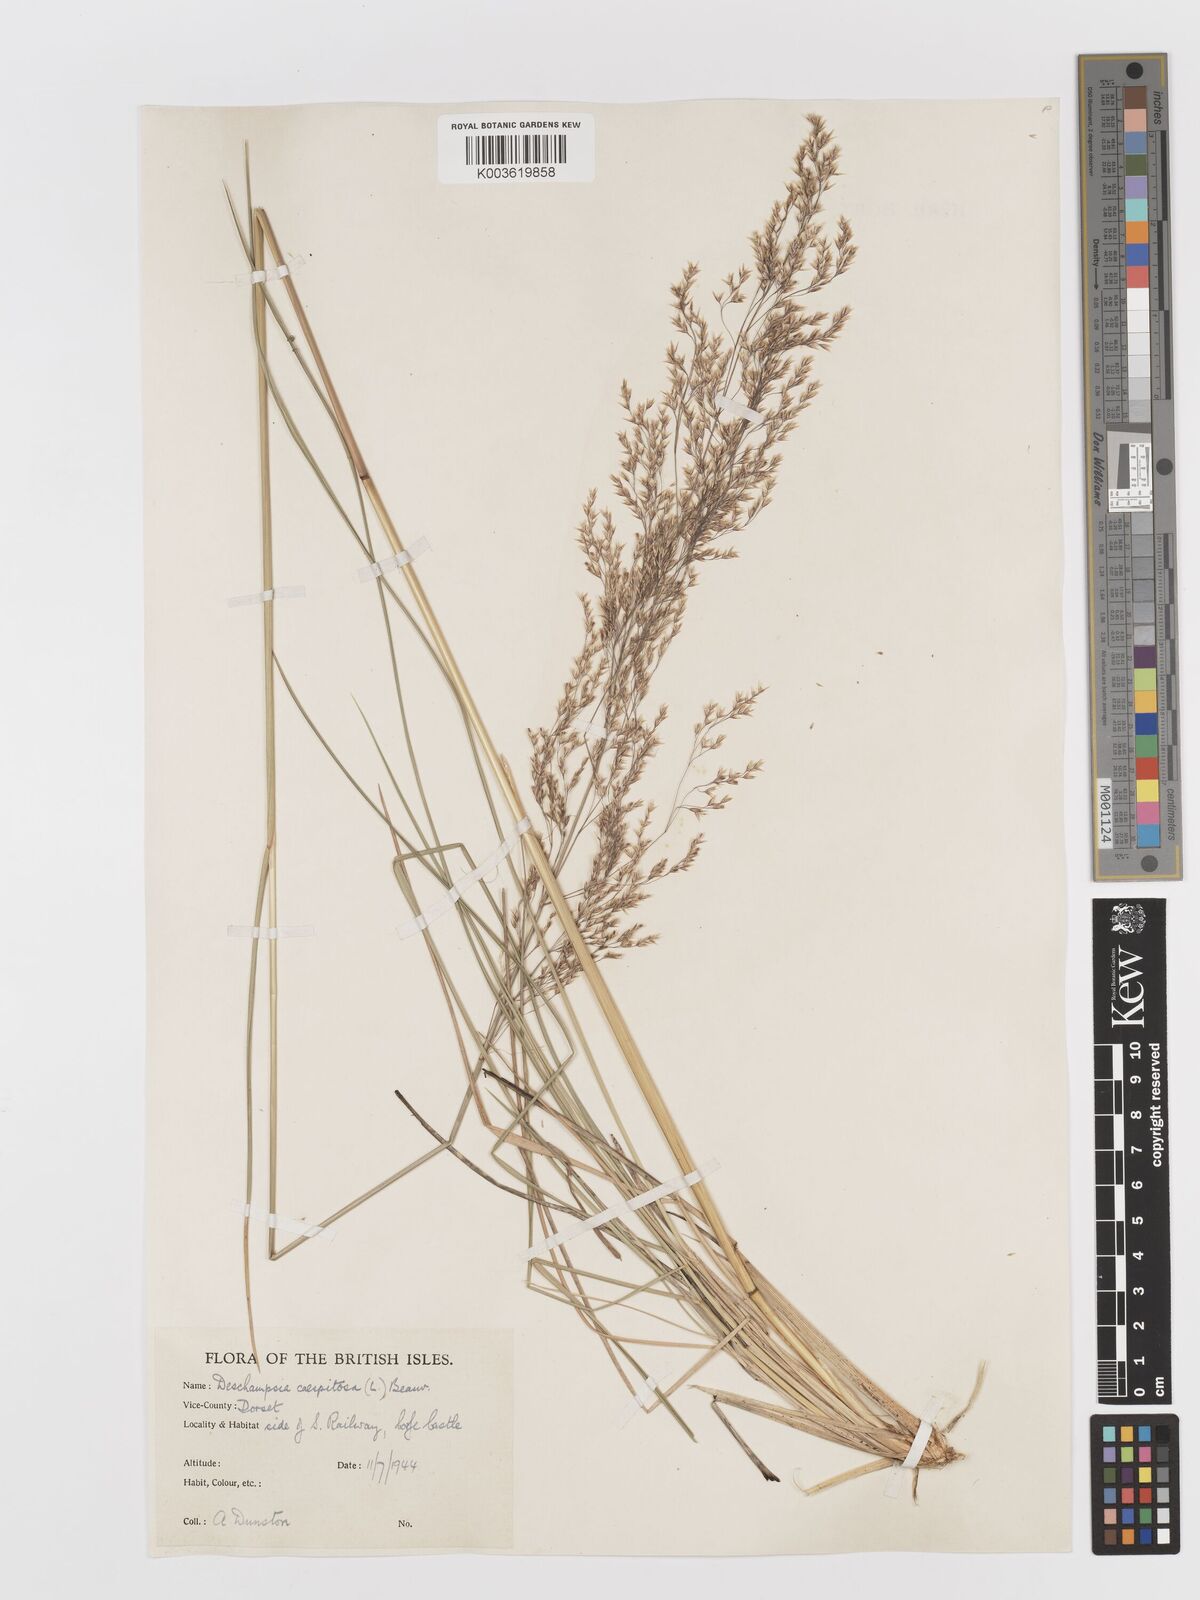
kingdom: Plantae
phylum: Tracheophyta
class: Liliopsida
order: Poales
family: Poaceae
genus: Deschampsia
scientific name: Deschampsia cespitosa
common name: Tufted hair-grass
